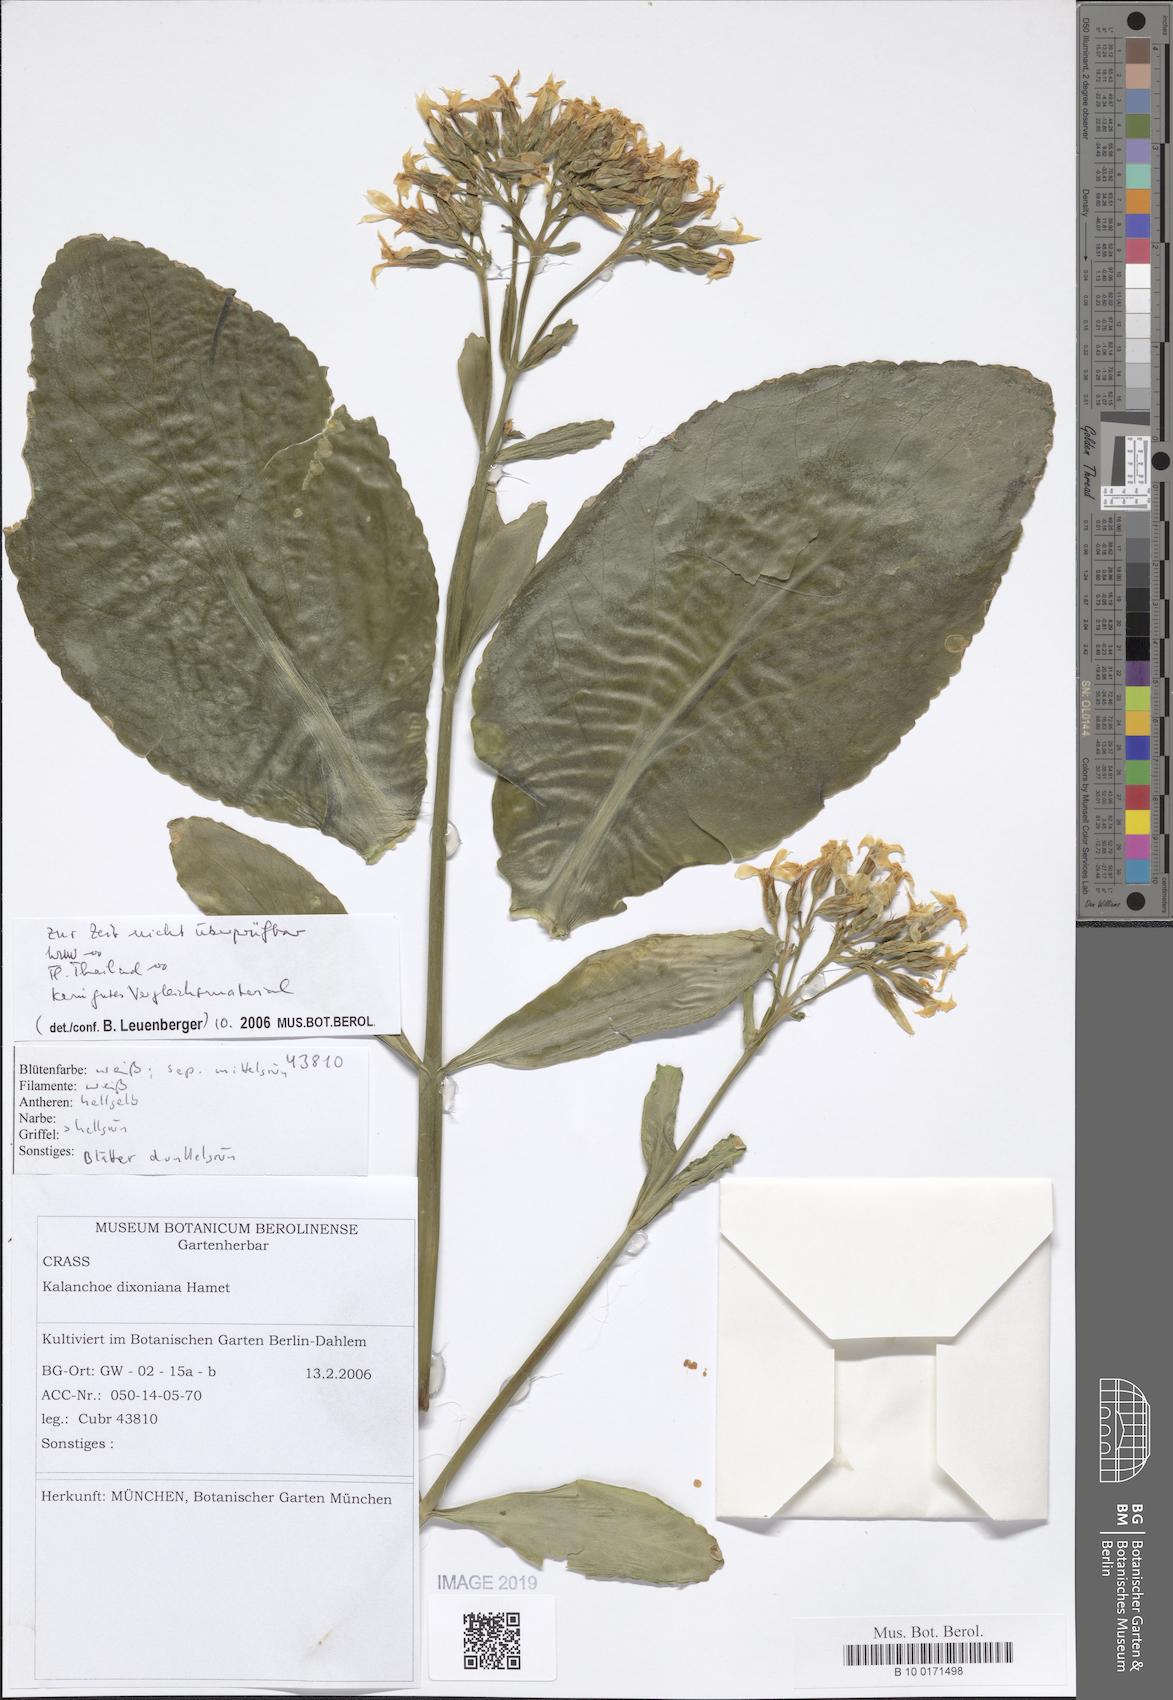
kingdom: Plantae
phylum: Tracheophyta
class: Magnoliopsida
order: Saxifragales
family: Crassulaceae
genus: Kalanchoe
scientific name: Kalanchoe integra
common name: Neverdie
